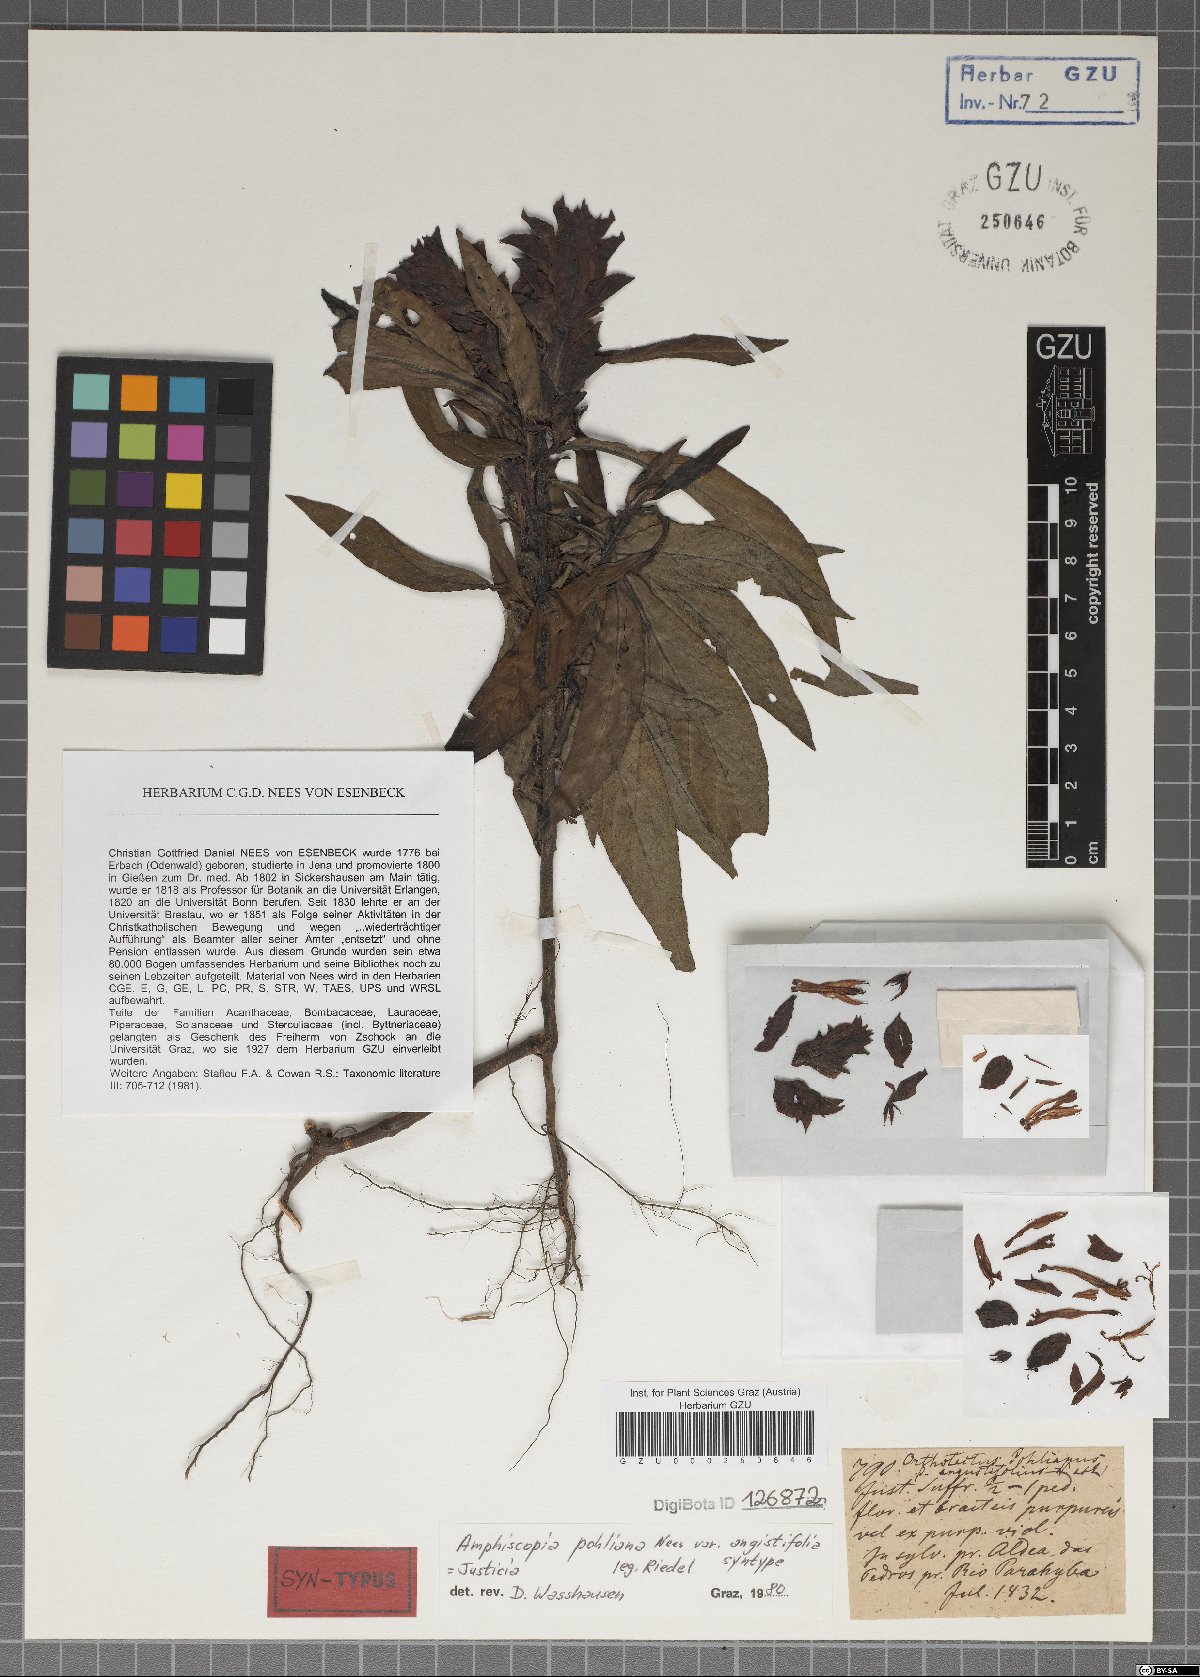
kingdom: Plantae
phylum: Tracheophyta
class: Magnoliopsida
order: Lamiales
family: Acanthaceae
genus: Justicia
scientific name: Justicia carnea
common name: Brazilian-plume
